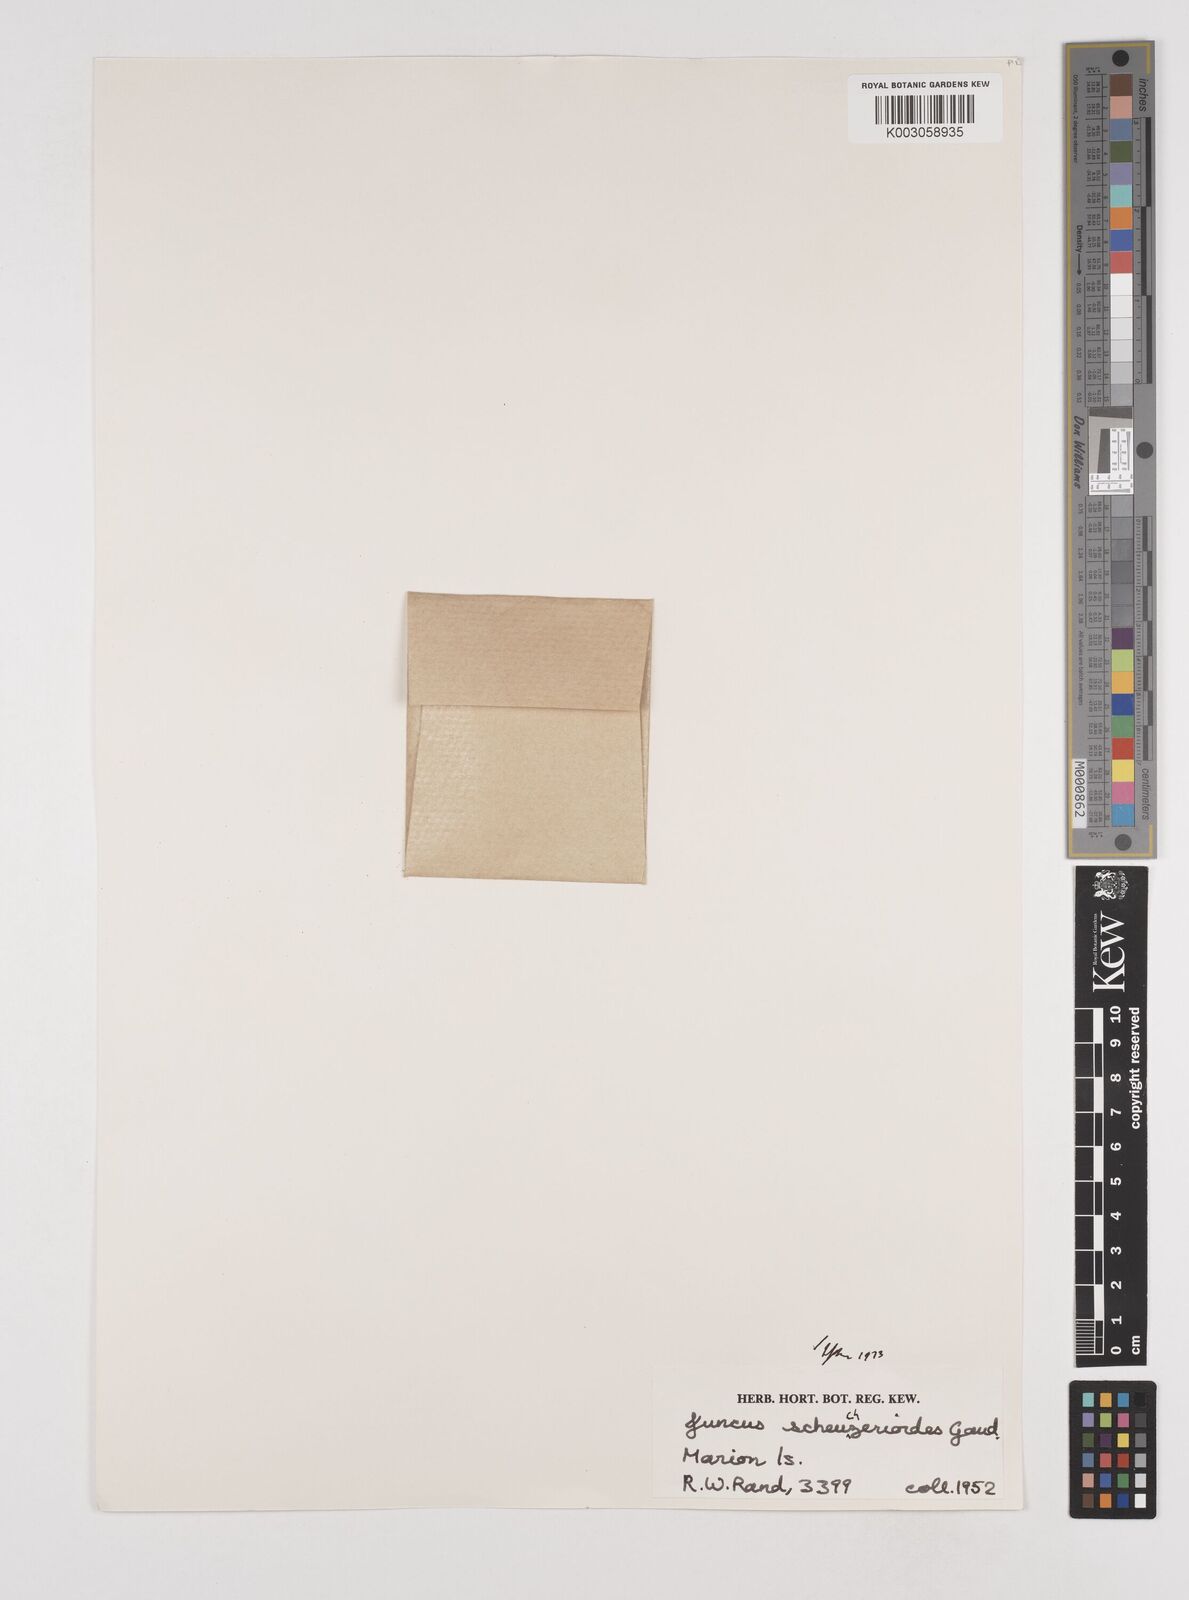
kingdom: Plantae
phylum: Tracheophyta
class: Liliopsida
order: Poales
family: Juncaceae
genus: Juncus
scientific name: Juncus scheuchzerioides
